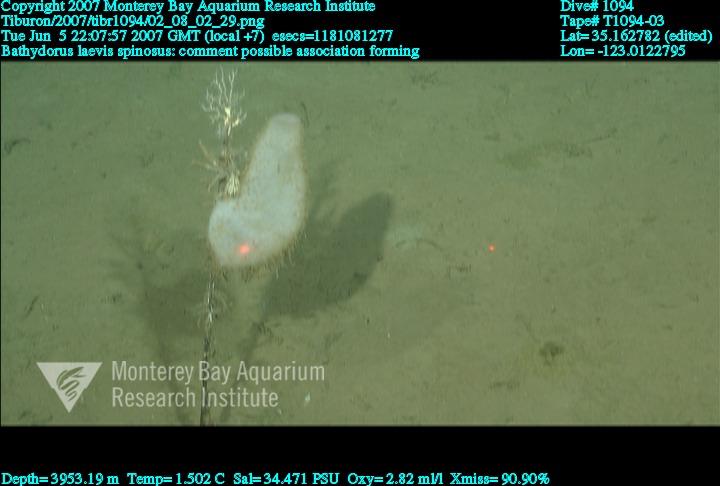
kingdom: Animalia
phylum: Porifera
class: Hexactinellida
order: Lyssacinosida
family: Rossellidae
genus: Bathydorus
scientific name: Bathydorus spinosus
